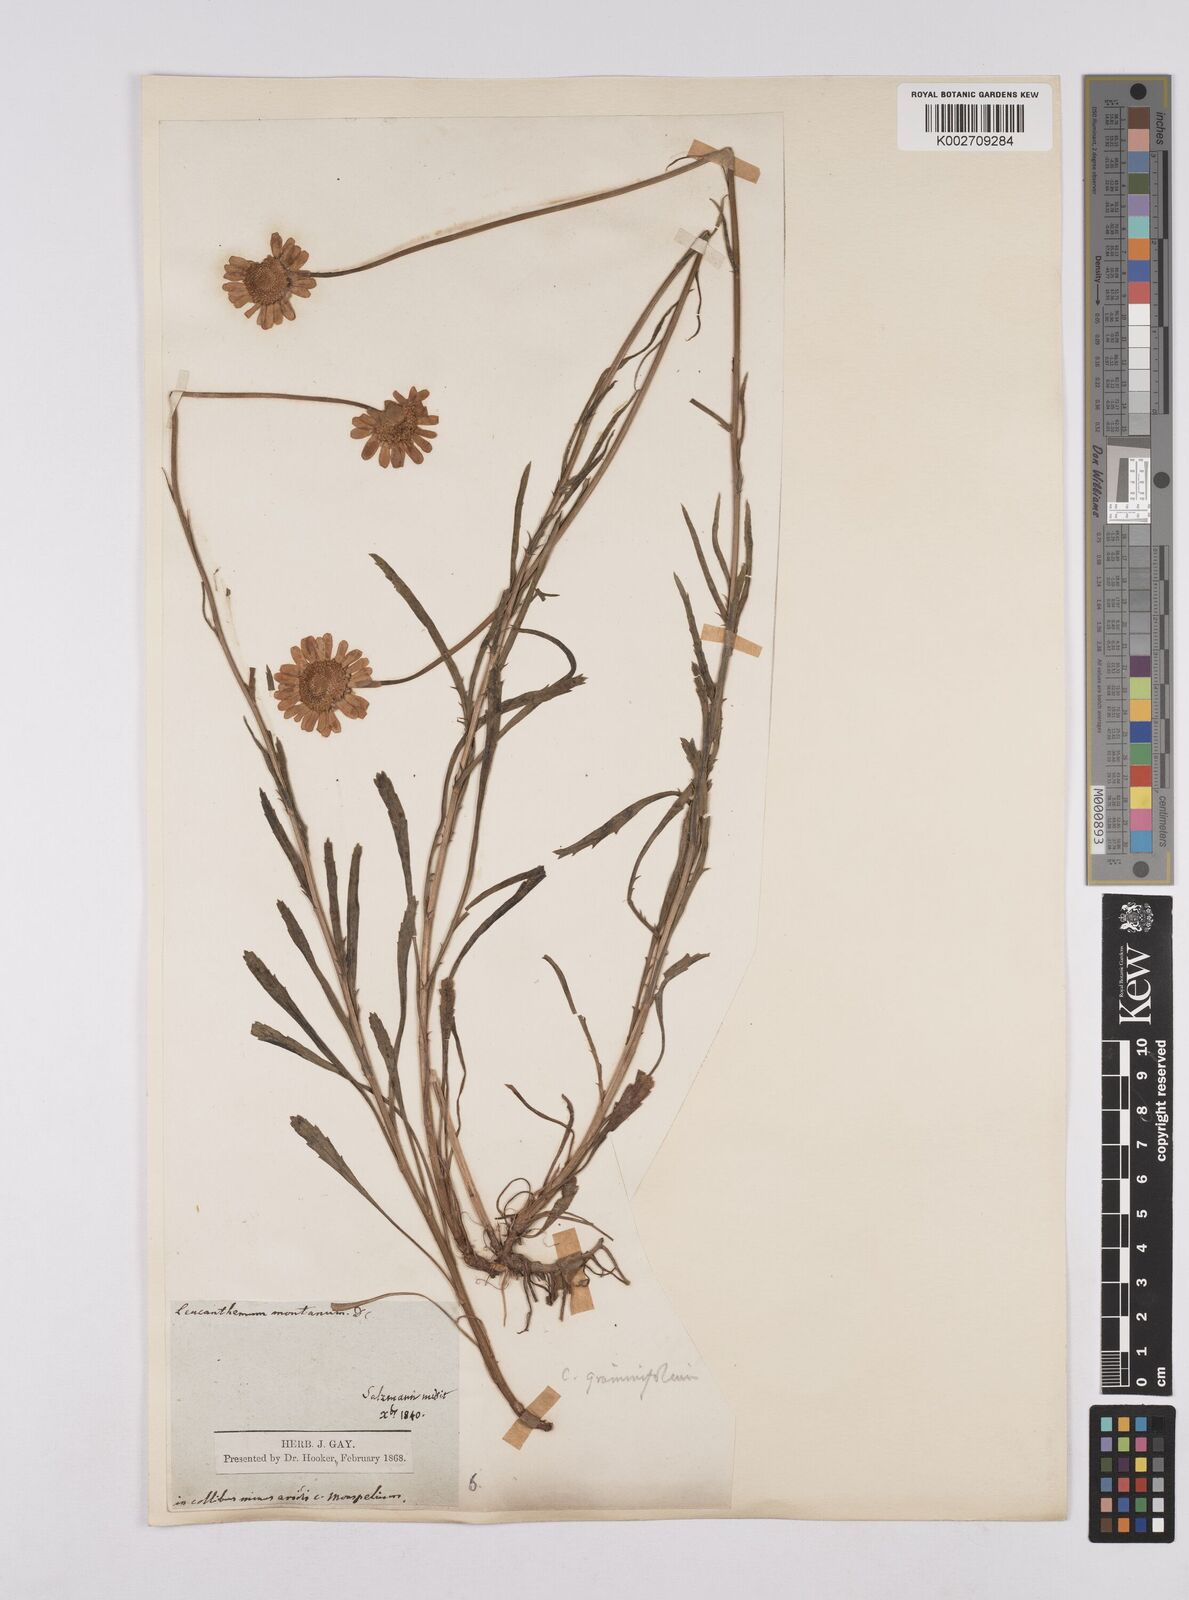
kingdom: Plantae
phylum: Tracheophyta
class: Magnoliopsida
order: Asterales
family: Asteraceae
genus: Leucanthemum
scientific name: Leucanthemum chloroticum
